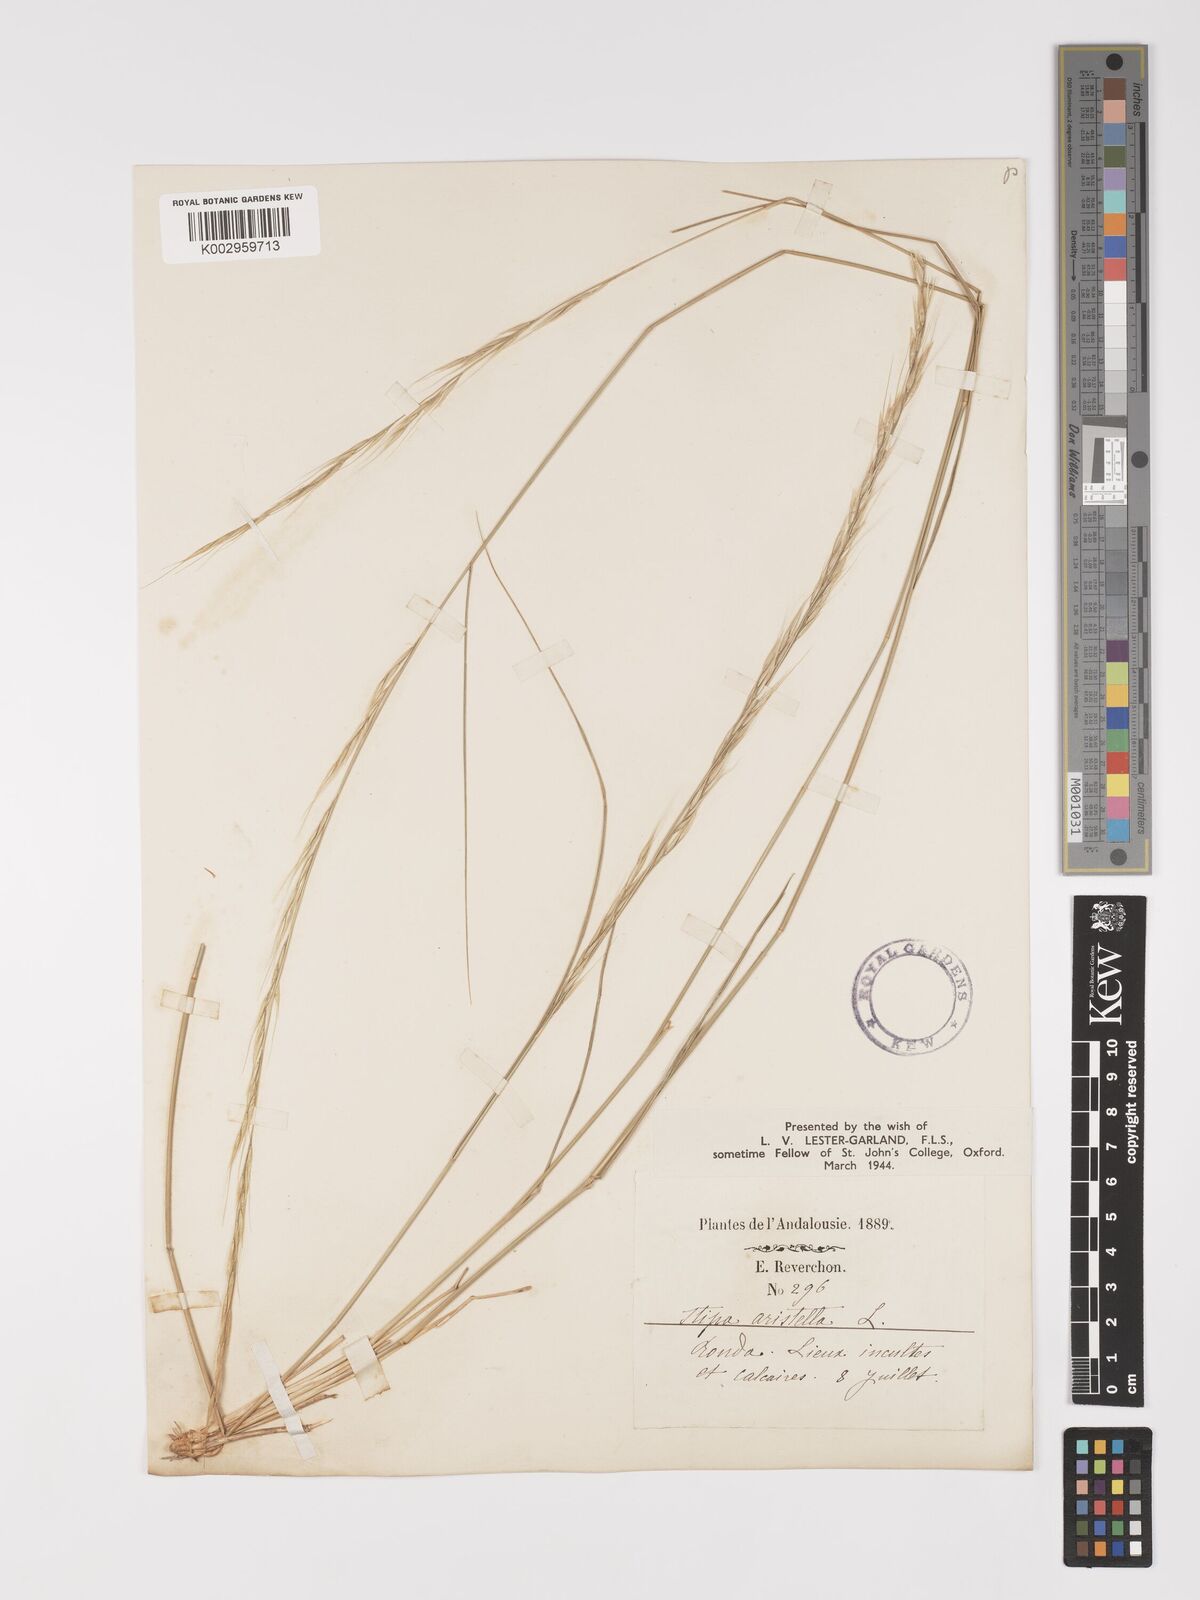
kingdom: Plantae
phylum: Tracheophyta
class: Liliopsida
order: Poales
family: Poaceae
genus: Achnatherum
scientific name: Achnatherum bromoides
